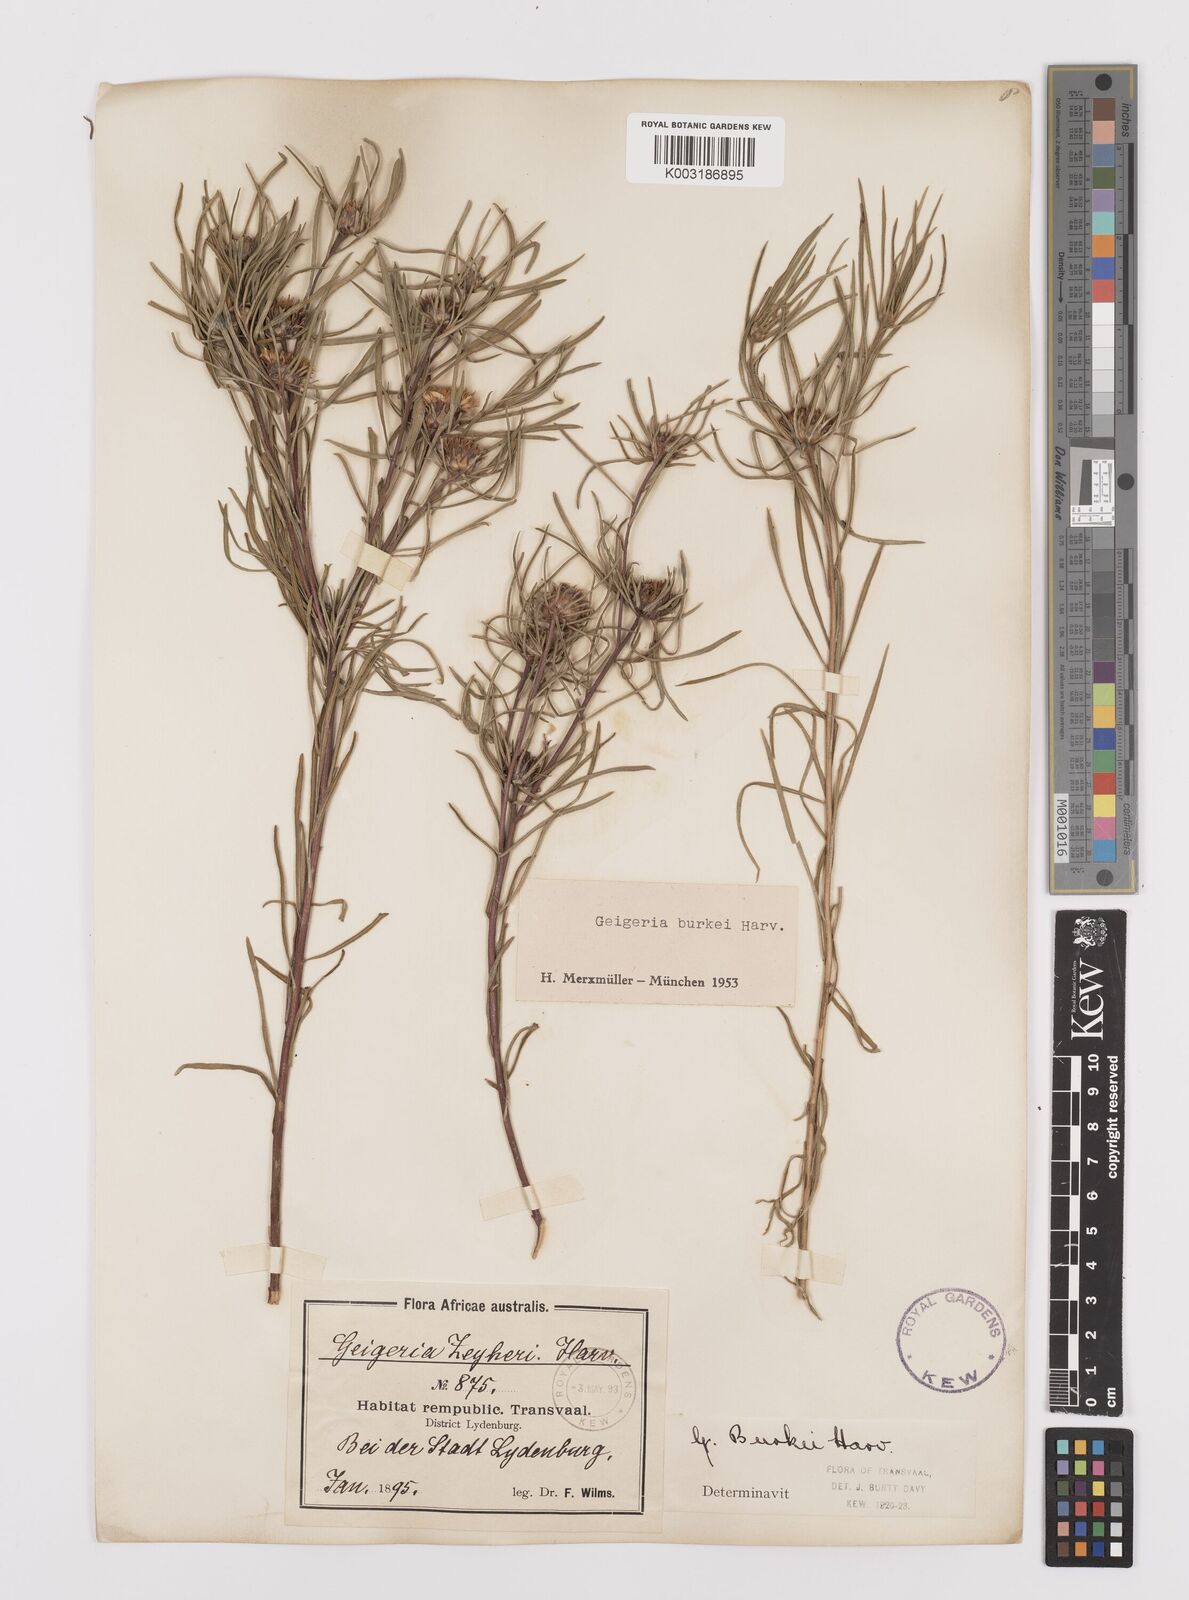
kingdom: Plantae
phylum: Tracheophyta
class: Magnoliopsida
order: Asterales
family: Asteraceae
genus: Geigeria
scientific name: Geigeria burkei
